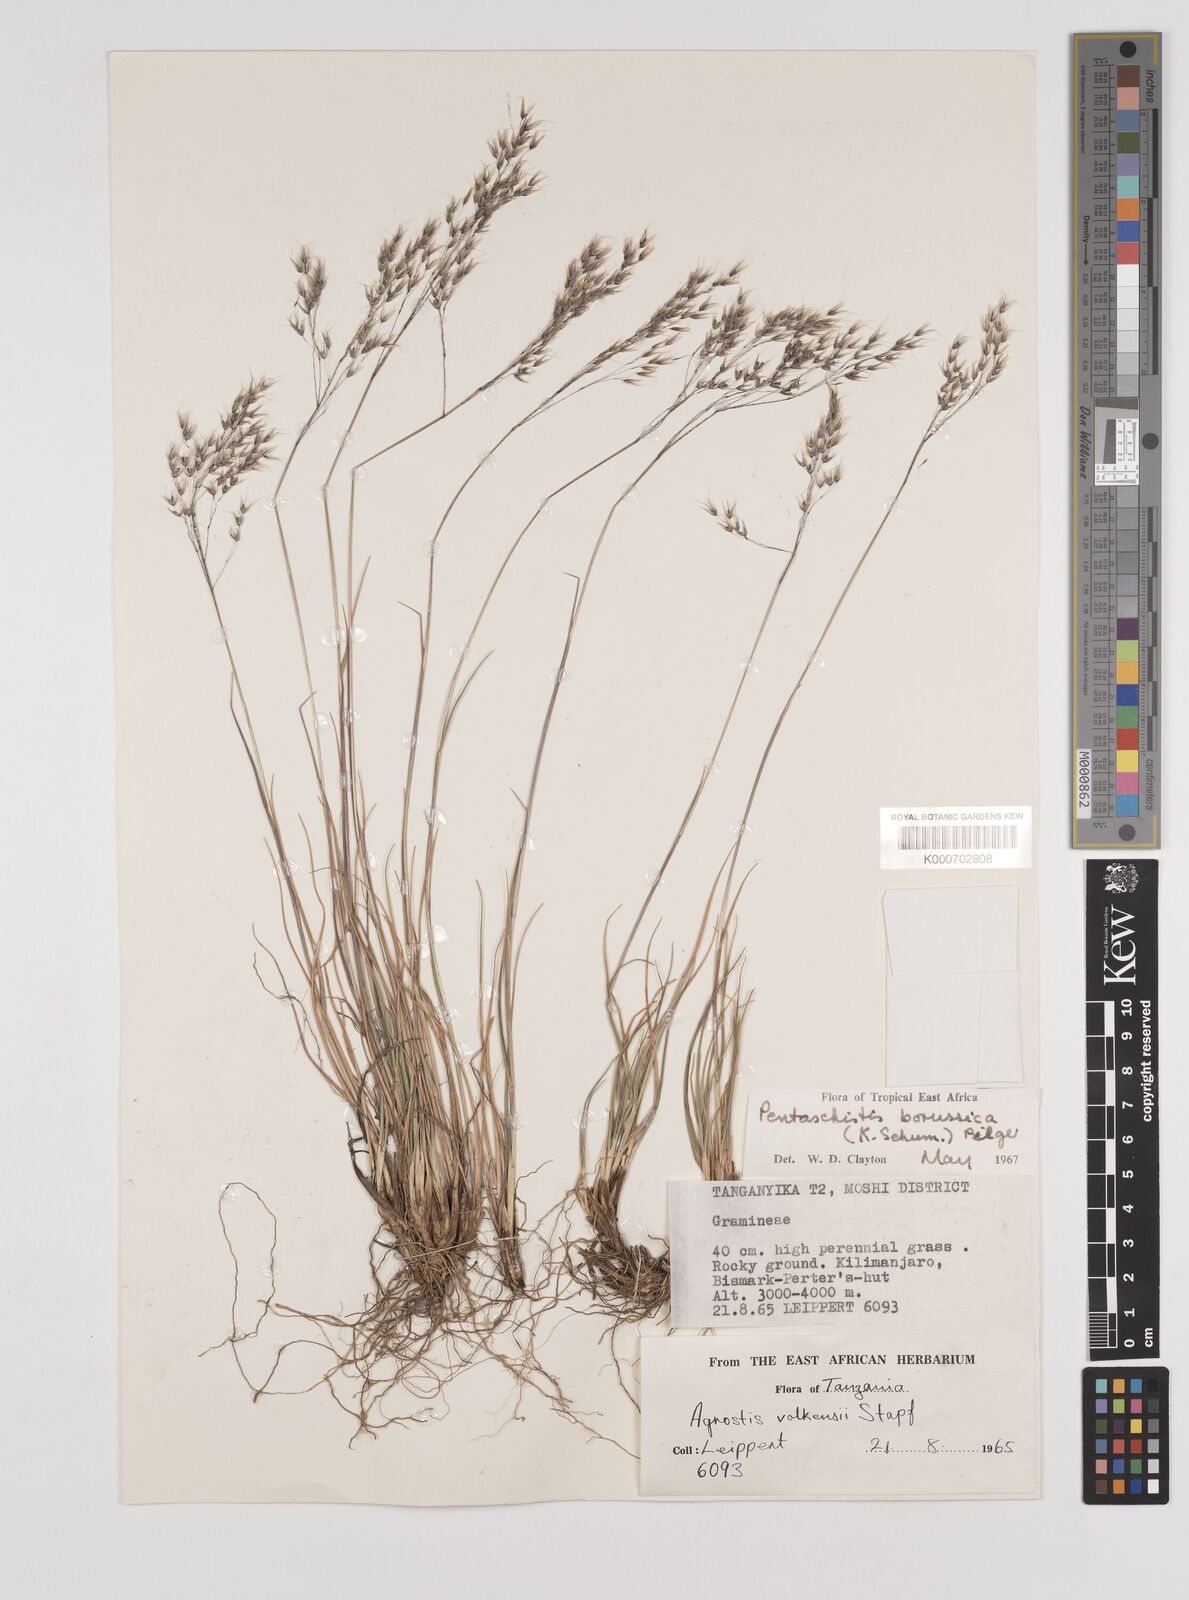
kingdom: Plantae
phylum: Tracheophyta
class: Liliopsida
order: Poales
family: Poaceae
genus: Pentameris
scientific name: Pentameris borussica
